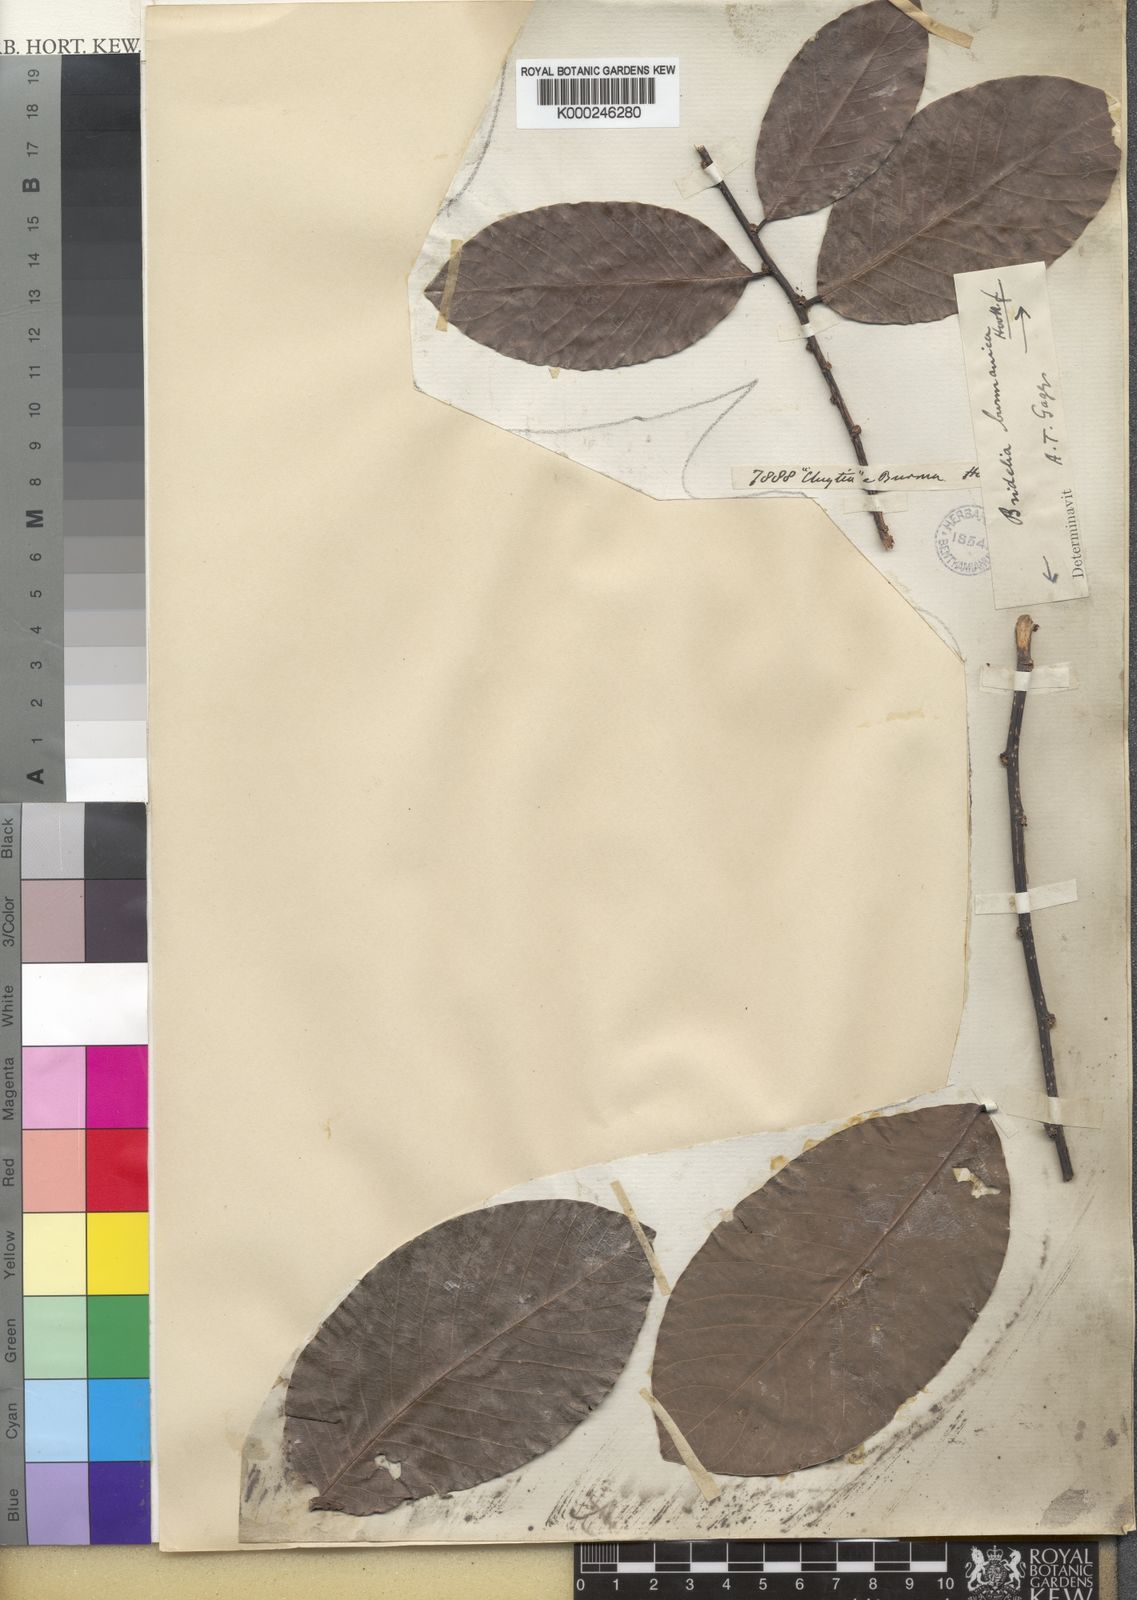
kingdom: Plantae
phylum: Tracheophyta
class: Magnoliopsida
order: Malpighiales
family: Phyllanthaceae
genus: Bridelia
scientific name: Bridelia ovata
